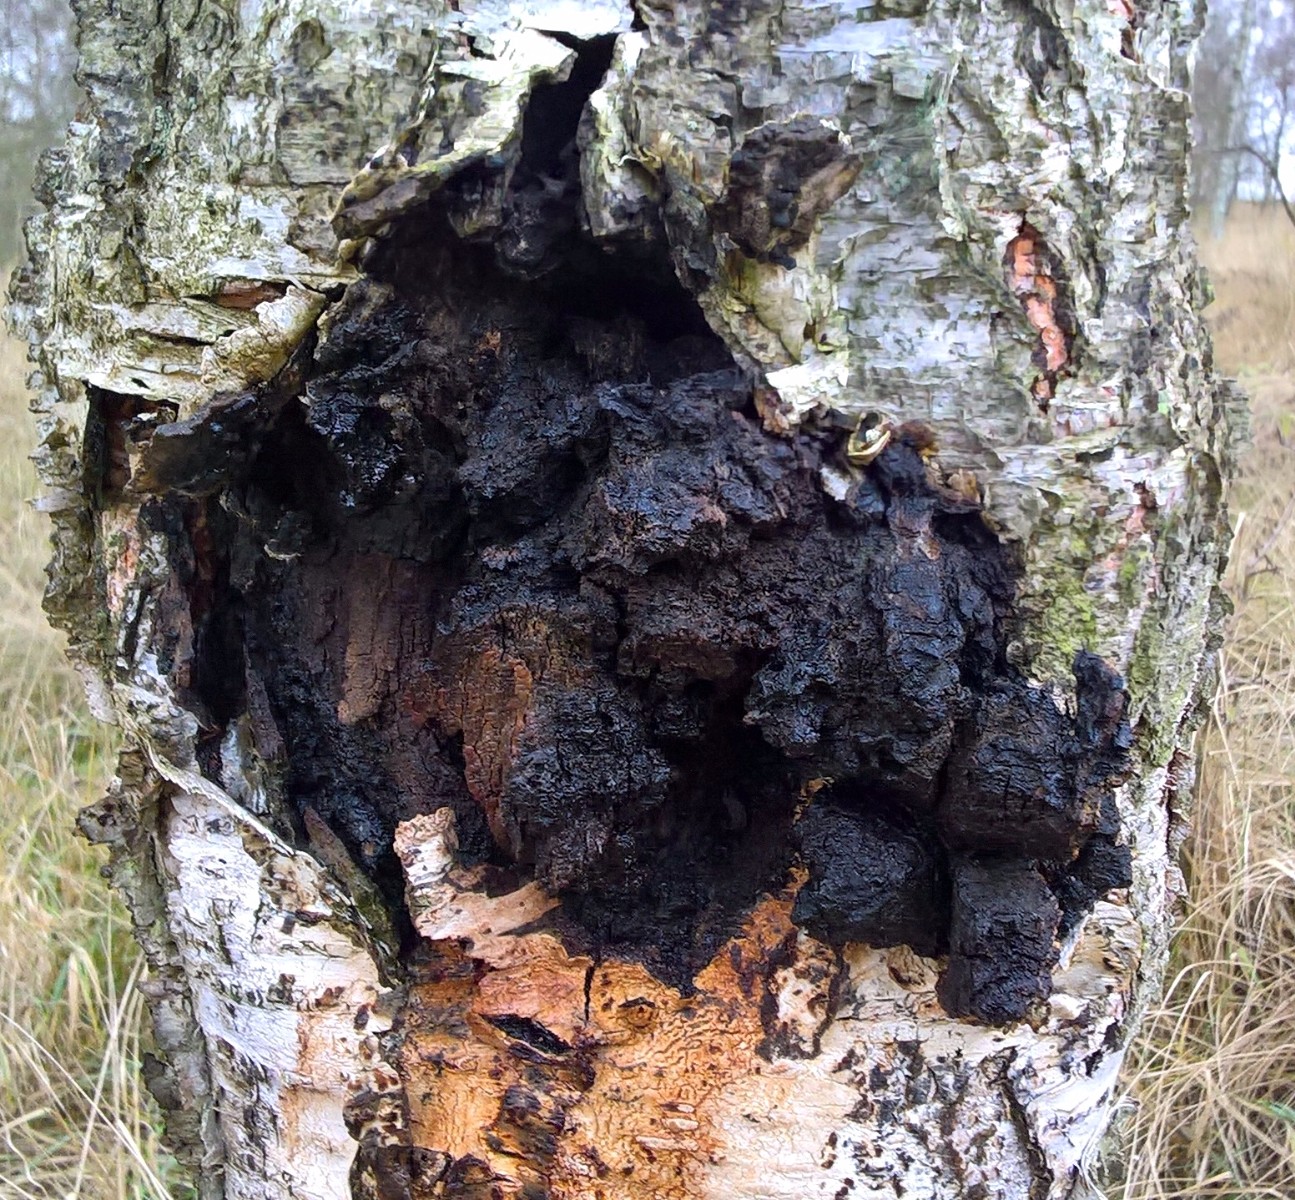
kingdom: Fungi
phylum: Basidiomycota
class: Agaricomycetes
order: Hymenochaetales
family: Hymenochaetaceae
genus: Inonotus
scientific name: Inonotus obliquus
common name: birke-spejlporesvamp
